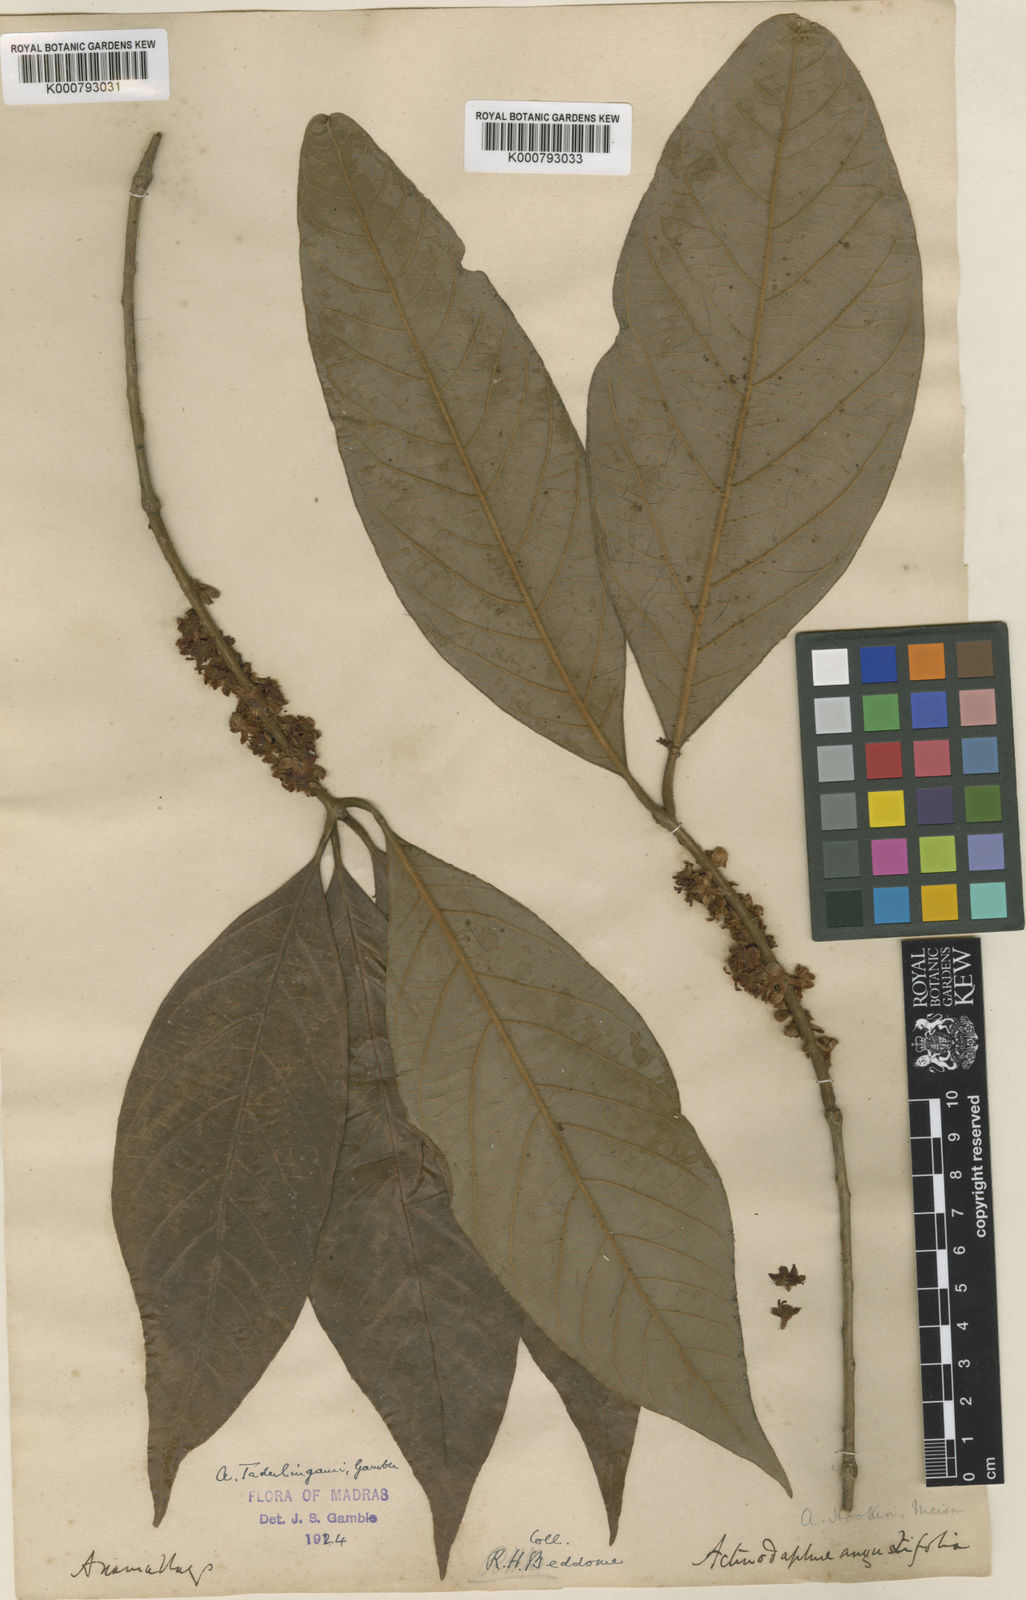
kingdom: Plantae
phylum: Tracheophyta
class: Magnoliopsida
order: Laurales
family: Lauraceae
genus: Actinodaphne
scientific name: Actinodaphne tadulingamii
